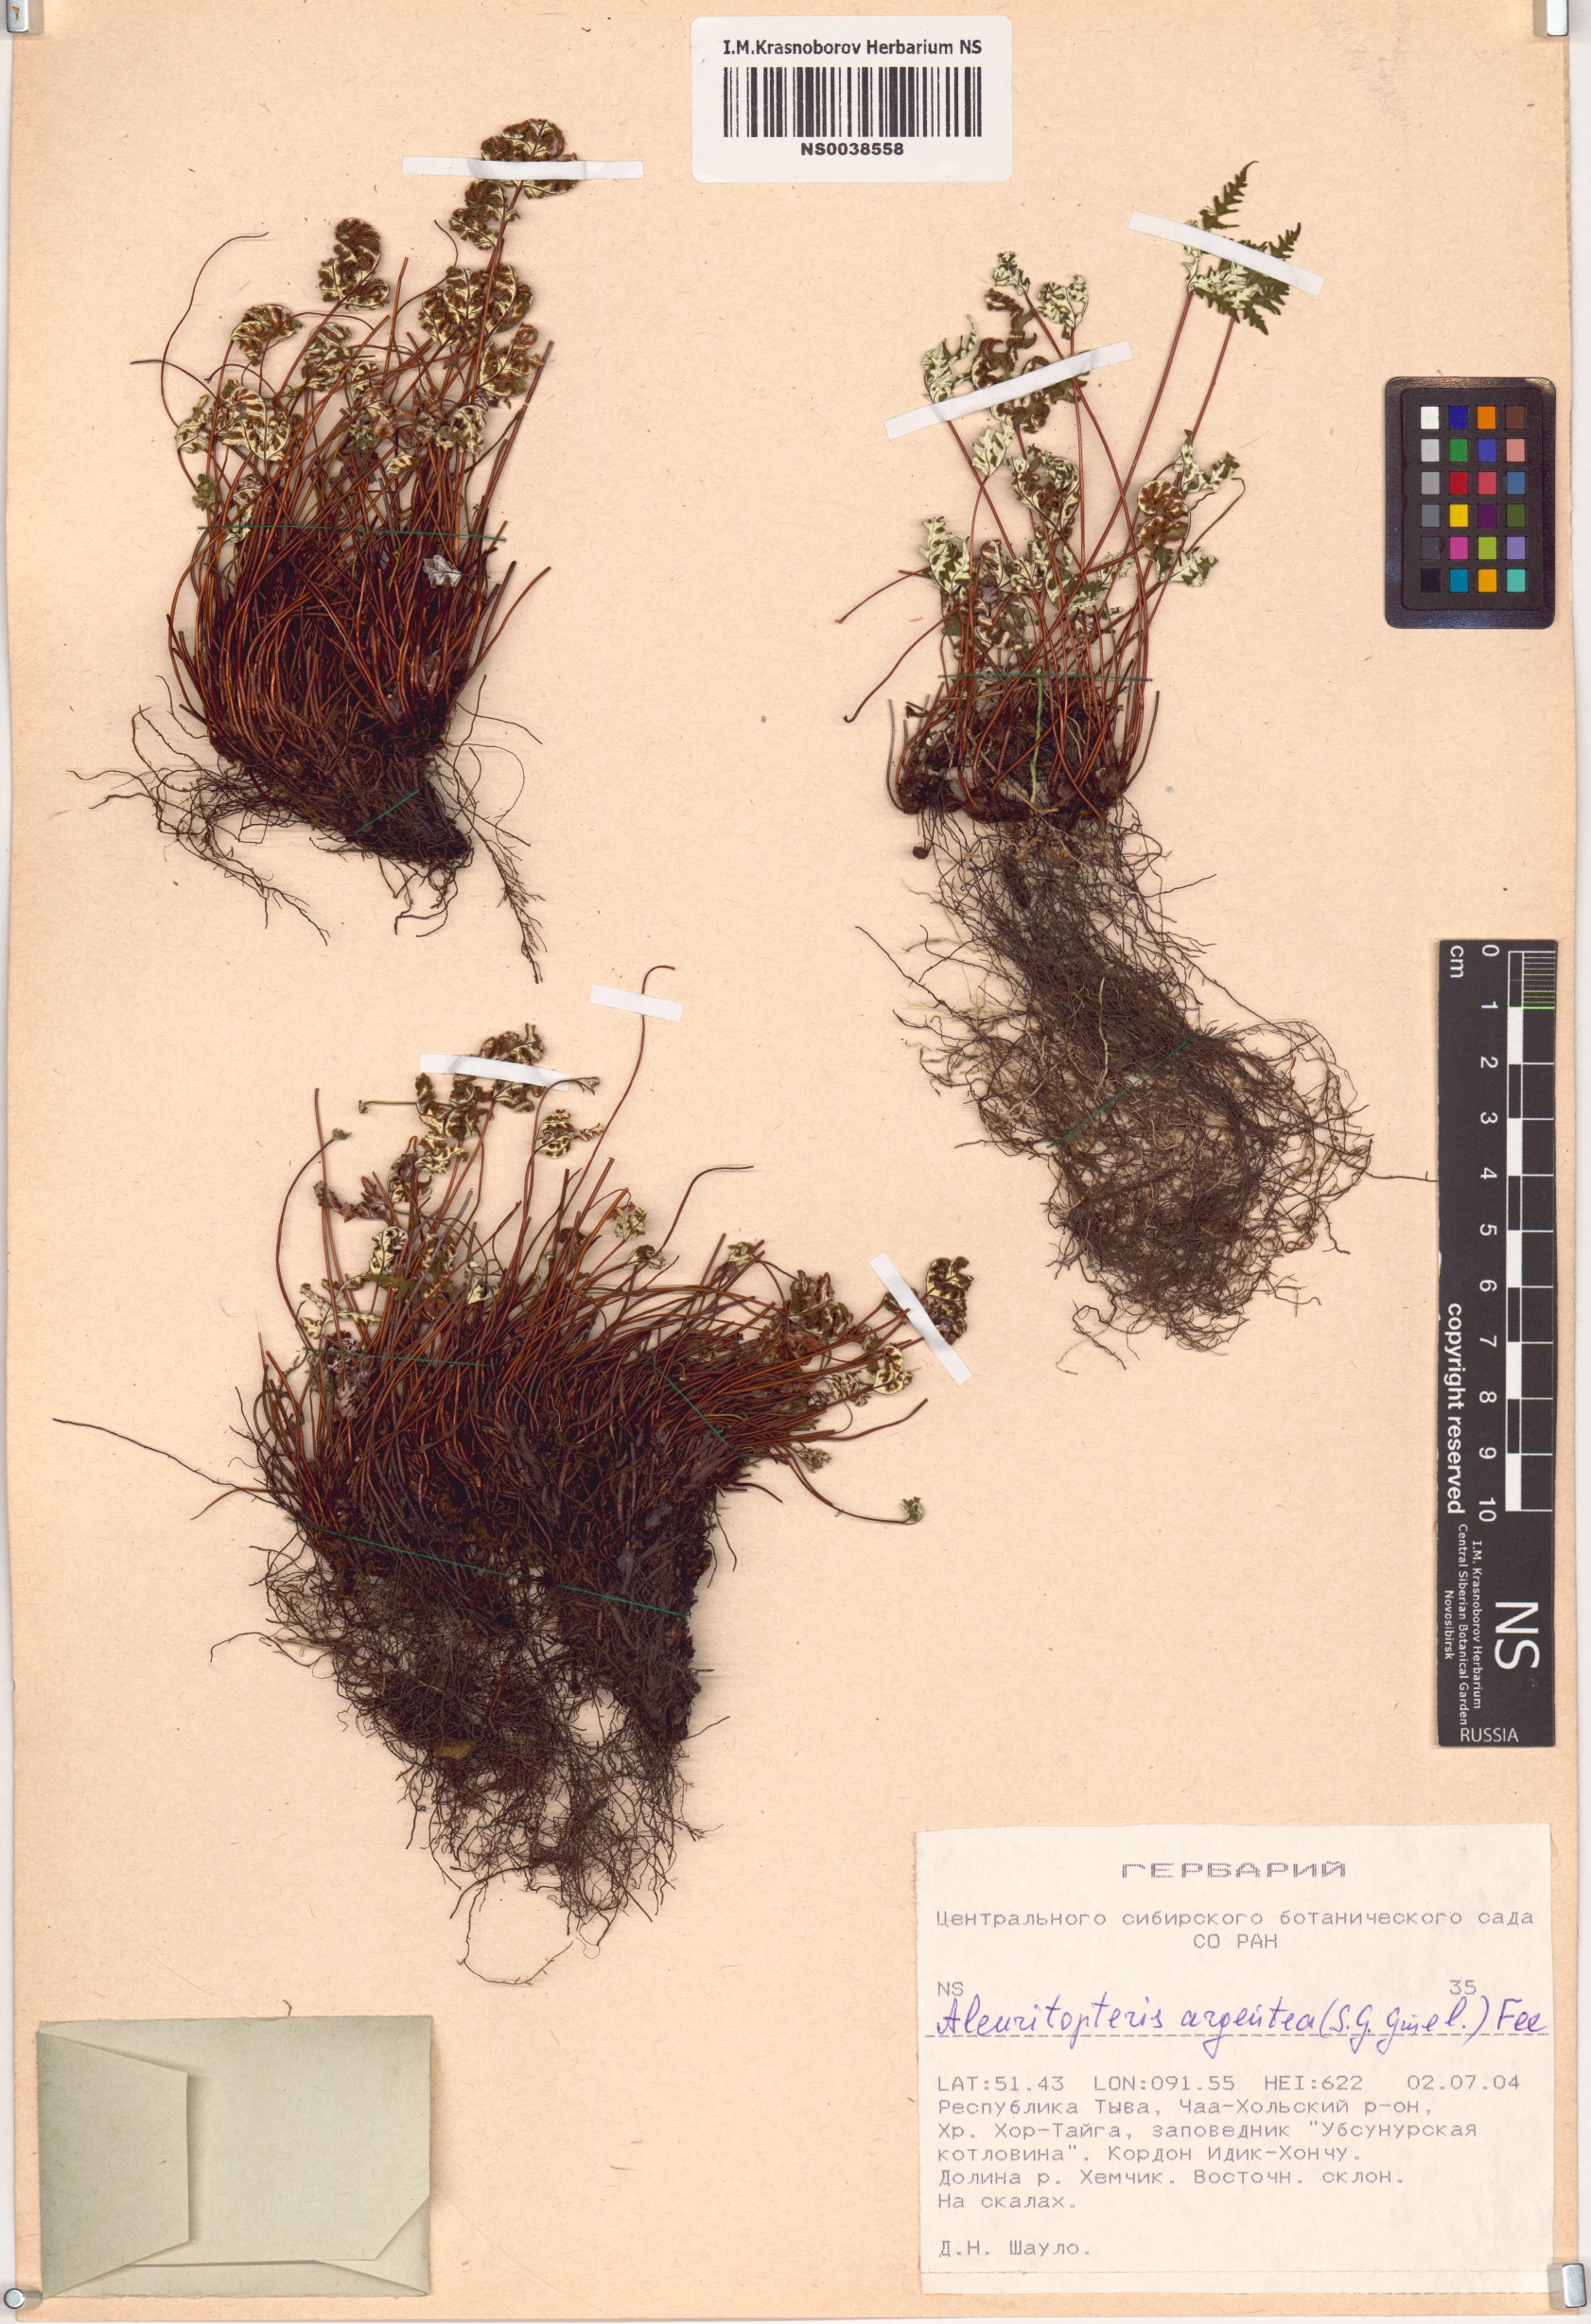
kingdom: Plantae
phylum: Tracheophyta
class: Polypodiopsida
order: Polypodiales
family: Pteridaceae
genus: Aleuritopteris
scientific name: Aleuritopteris argentea
